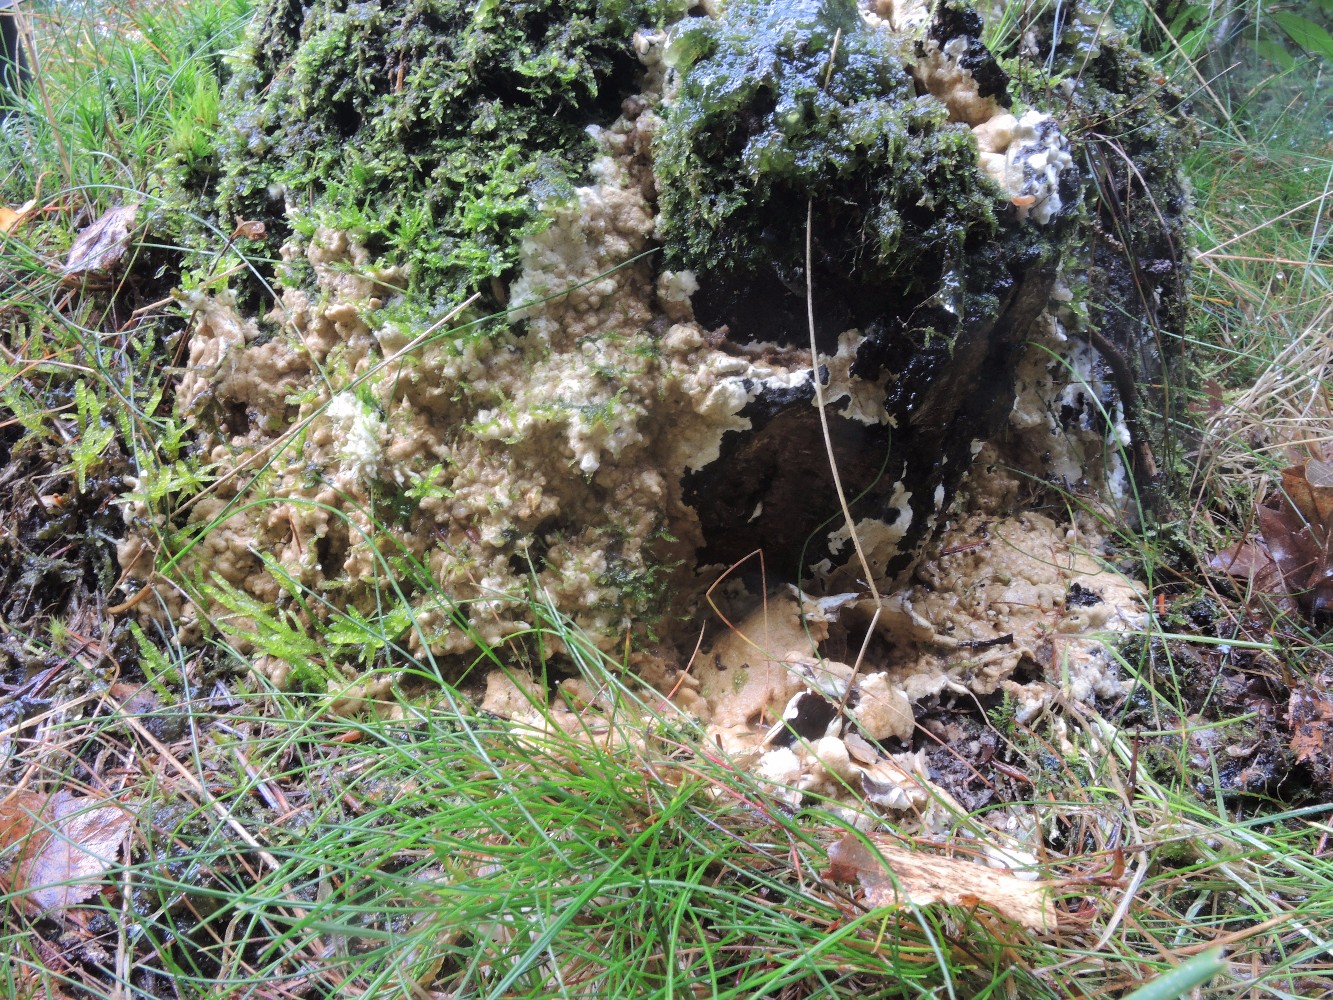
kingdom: Fungi
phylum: Ascomycota
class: Sordariomycetes
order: Hypocreales
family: Hypocreaceae
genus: Trichoderma
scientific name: Trichoderma citrinum
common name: udbredt kødkerne
